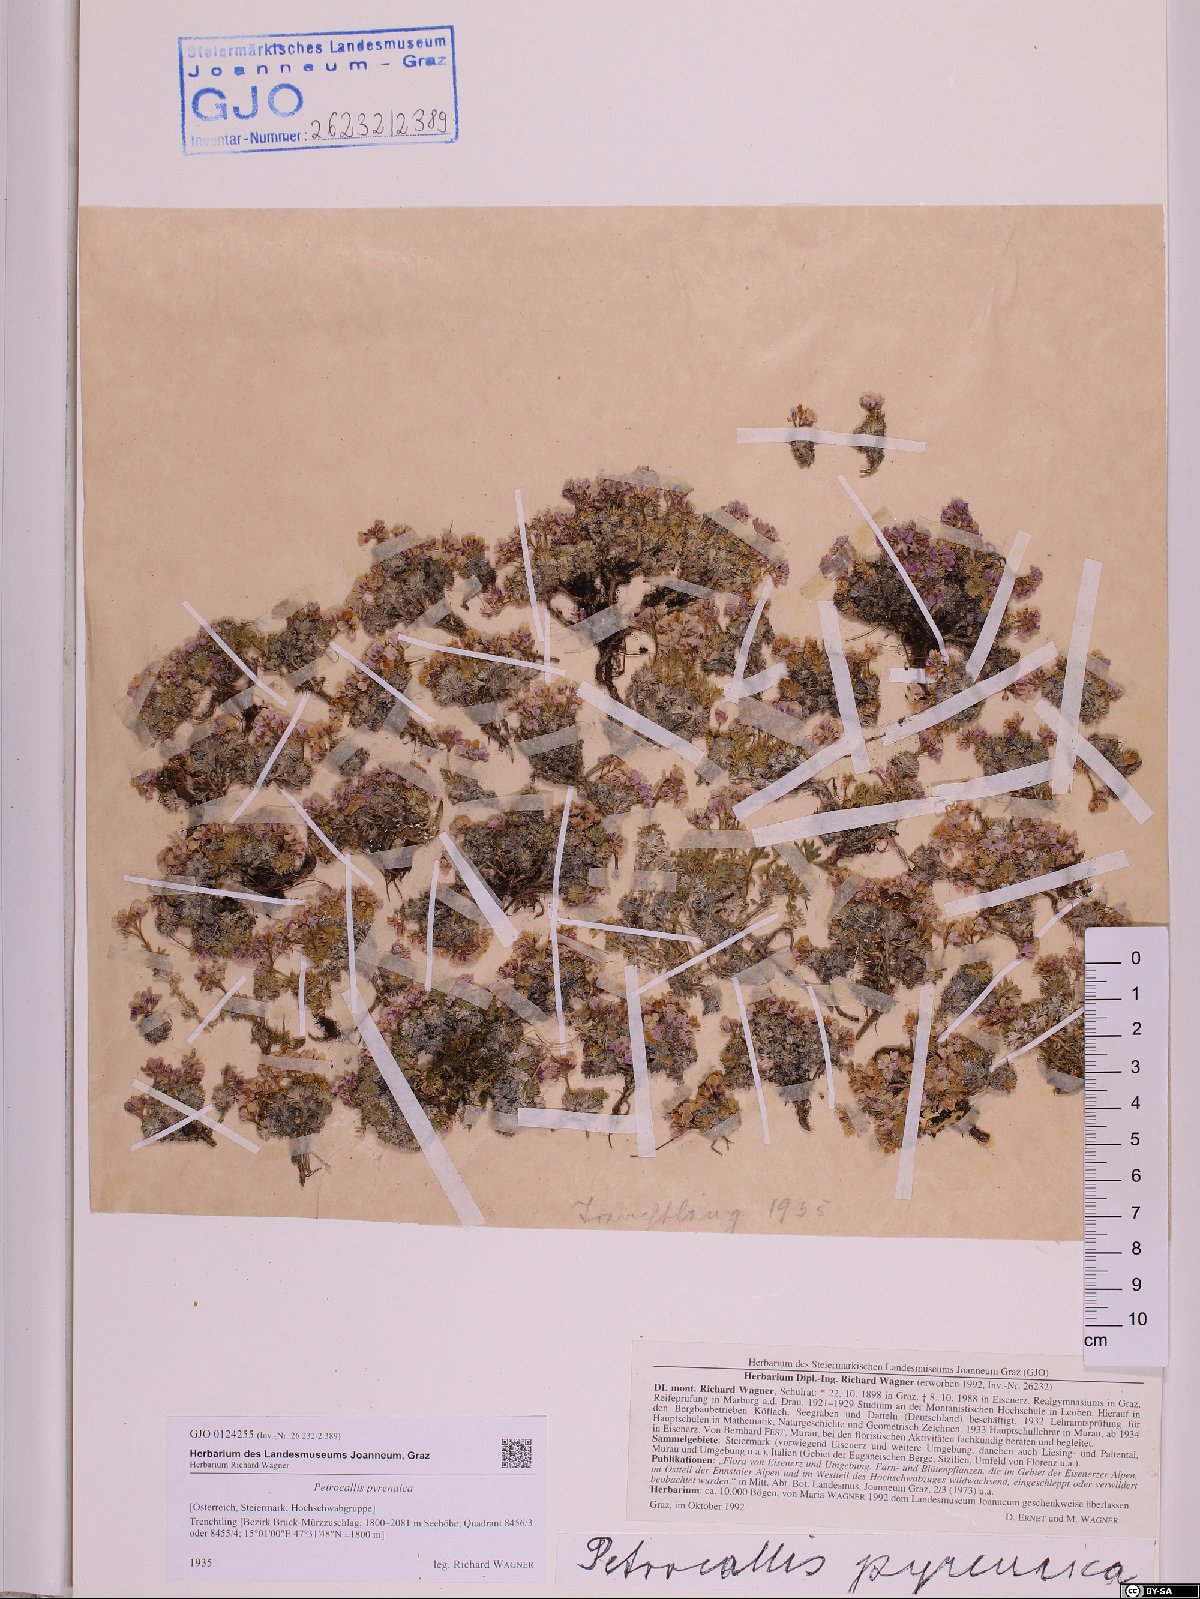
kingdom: Plantae
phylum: Tracheophyta
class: Magnoliopsida
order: Brassicales
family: Brassicaceae
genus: Petrocallis
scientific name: Petrocallis pyrenaica
